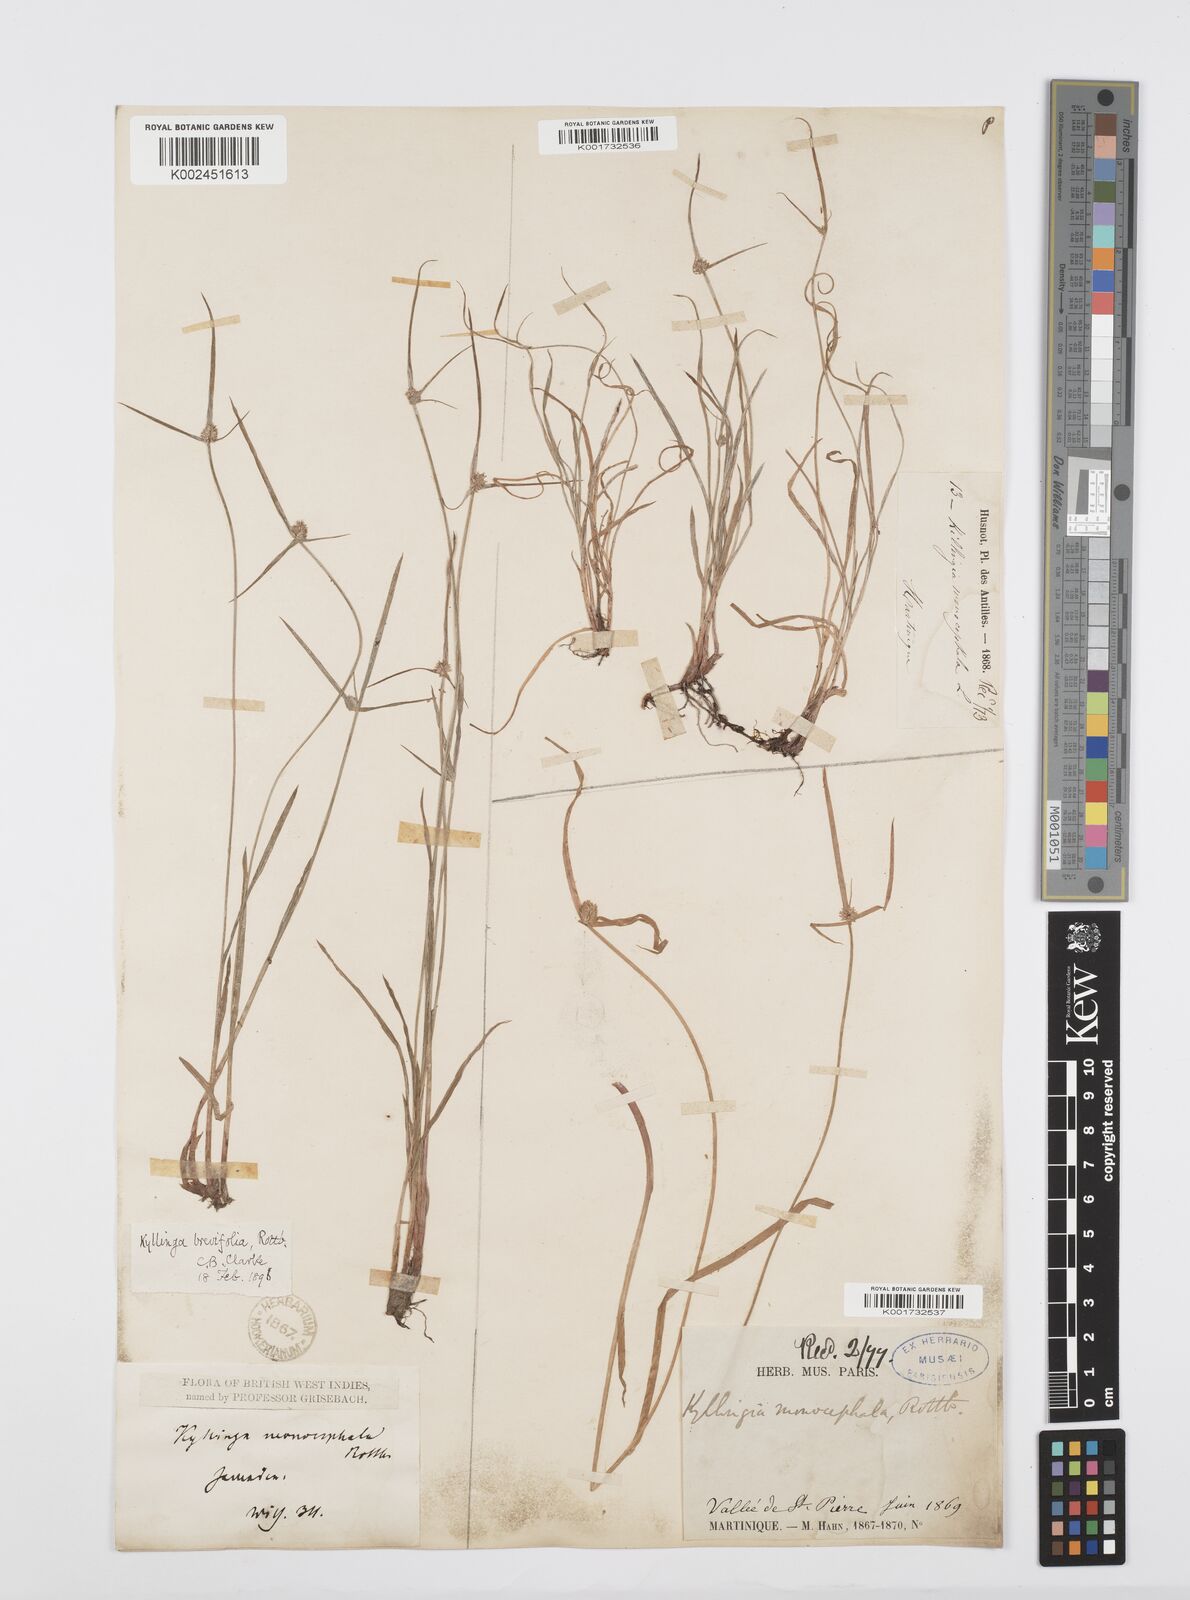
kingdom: Plantae
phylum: Tracheophyta
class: Liliopsida
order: Poales
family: Cyperaceae
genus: Cyperus
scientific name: Cyperus brevifolius
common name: Globe kyllinga
